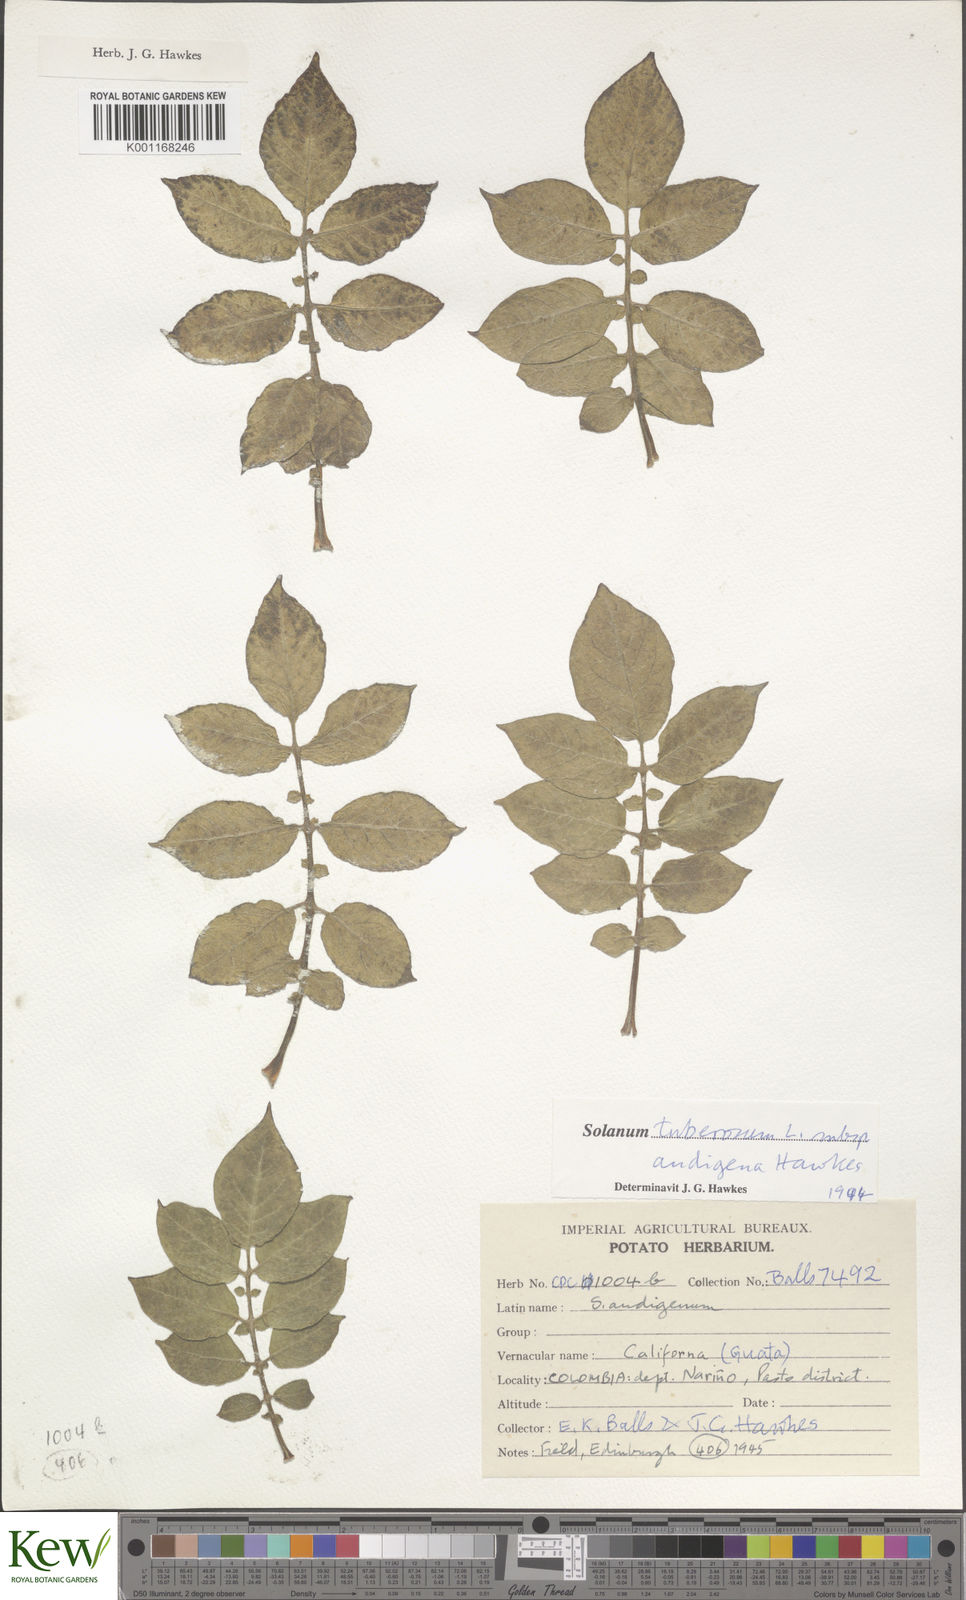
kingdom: Plantae
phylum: Tracheophyta
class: Magnoliopsida
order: Solanales
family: Solanaceae
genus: Solanum
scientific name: Solanum tuberosum
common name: Potato
